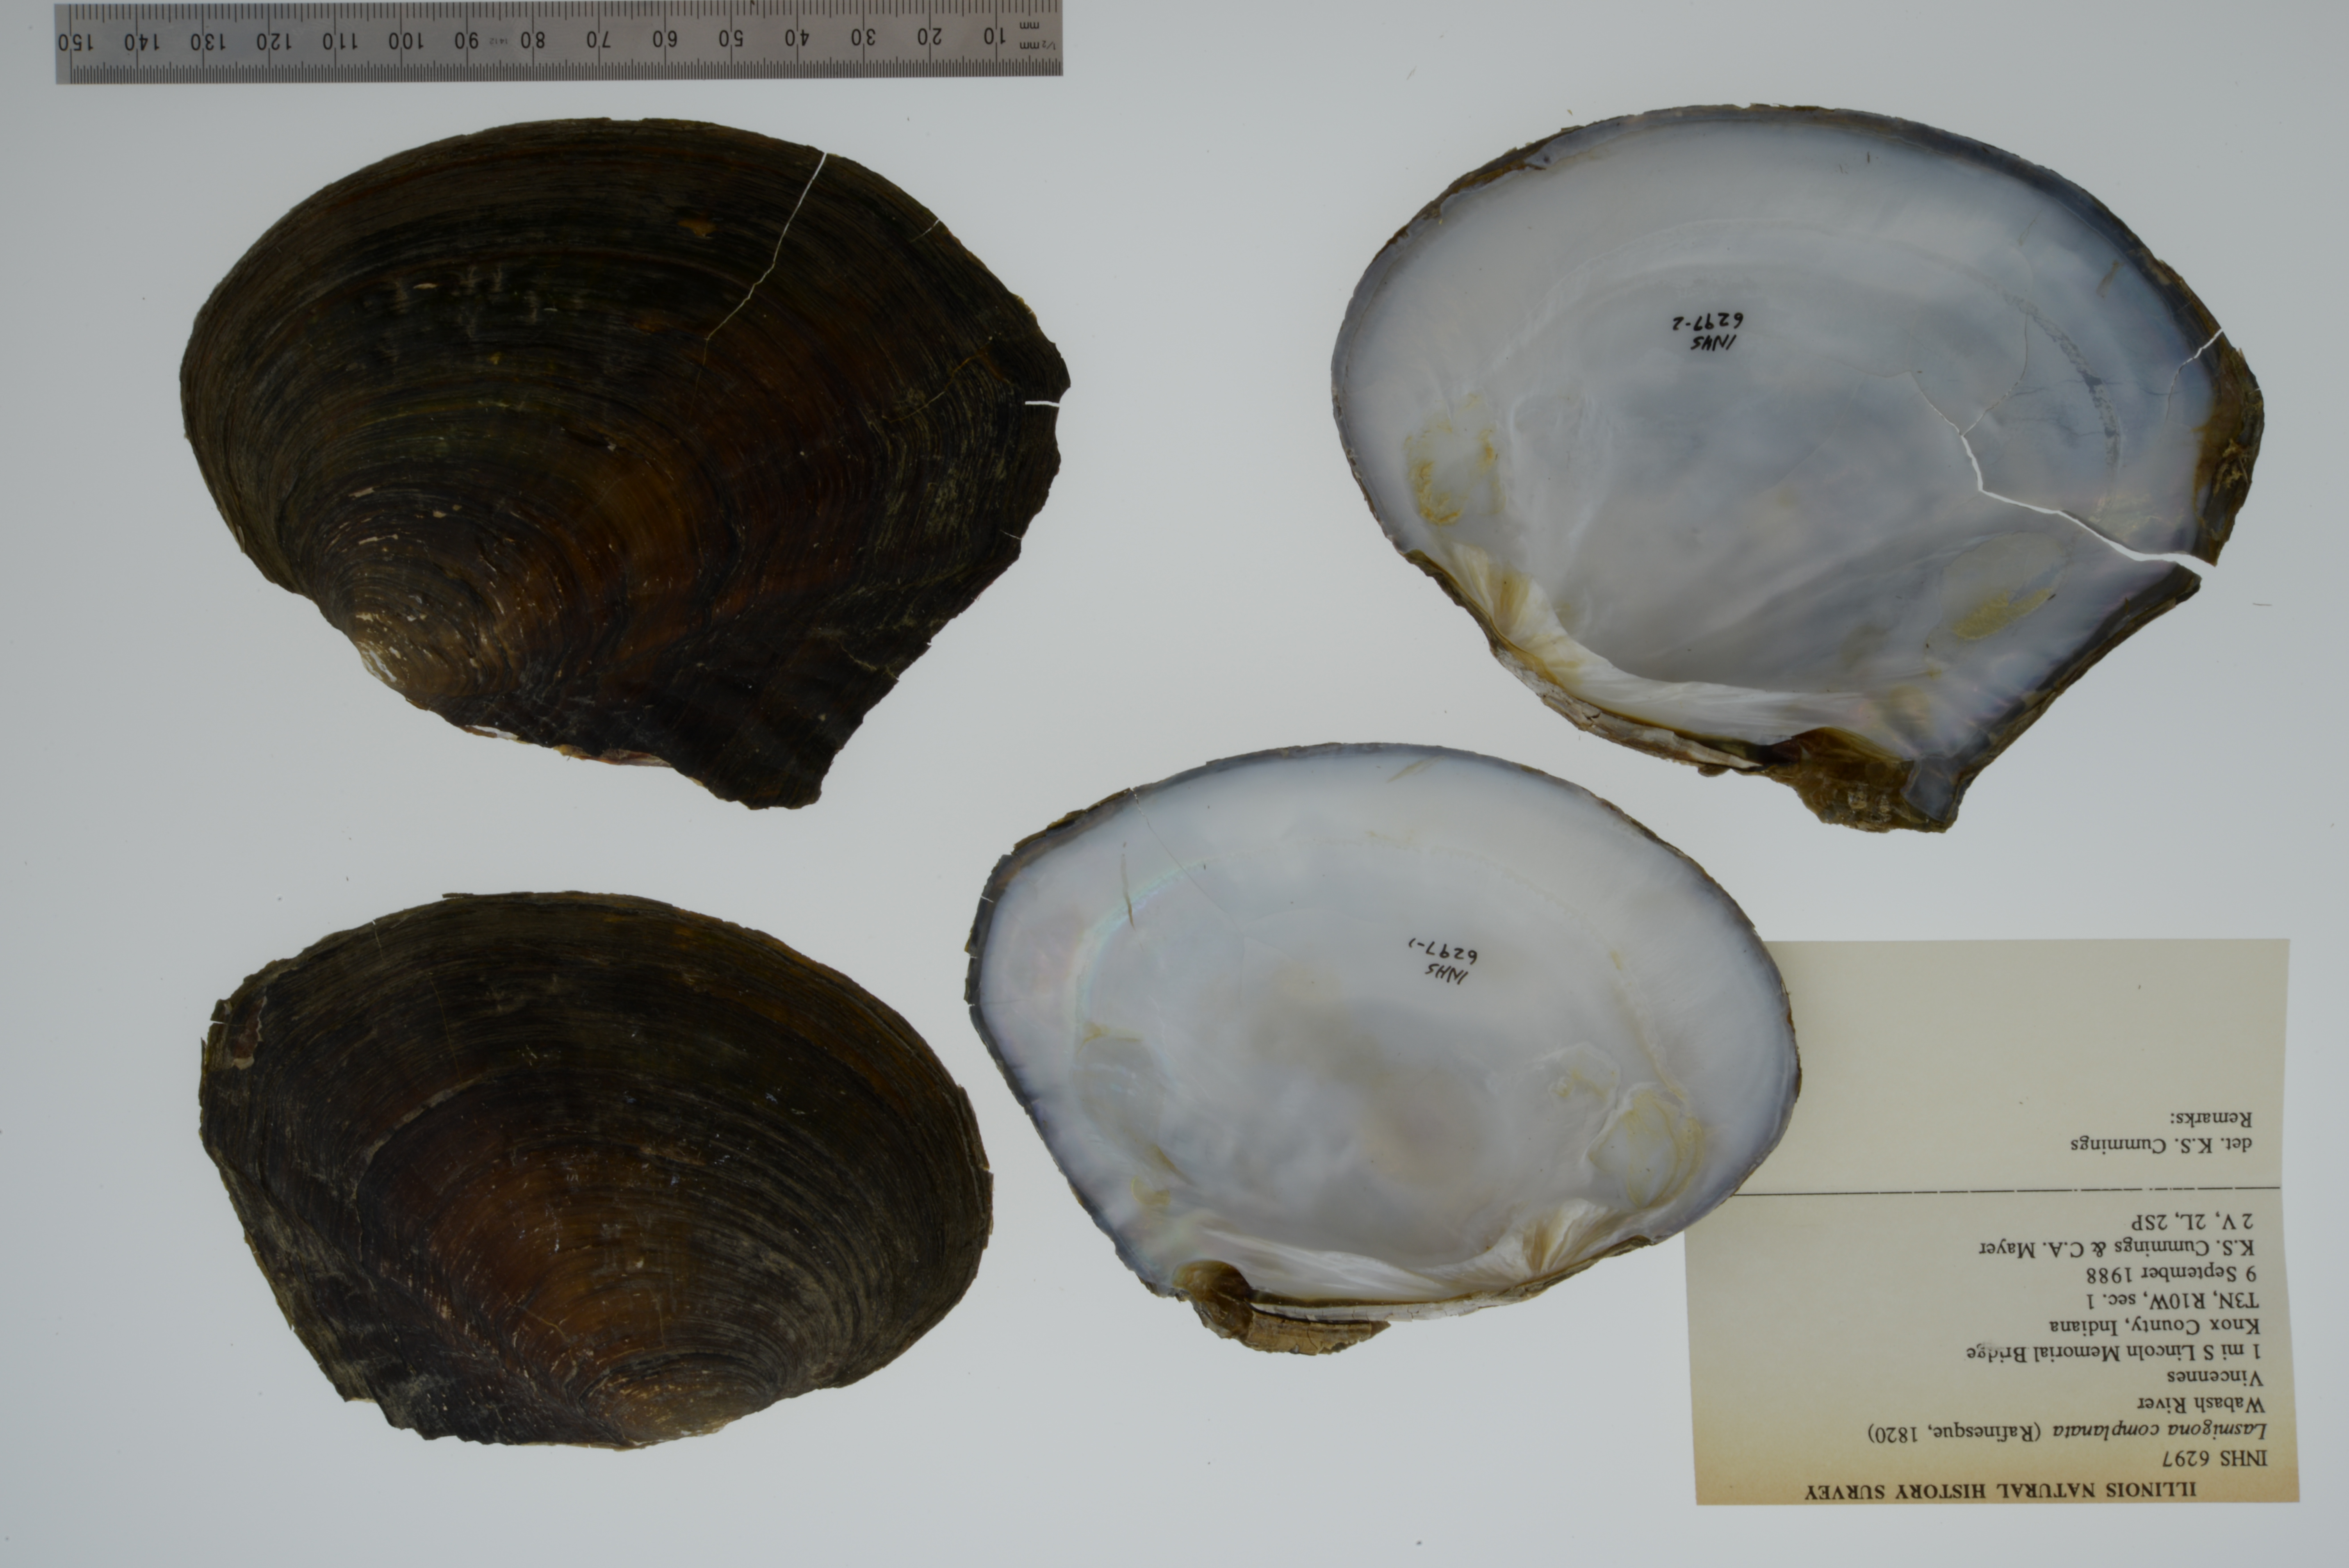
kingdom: Animalia
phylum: Mollusca
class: Bivalvia
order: Unionida
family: Unionidae
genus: Lasmigona
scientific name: Lasmigona complanata
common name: White heelsplitter
